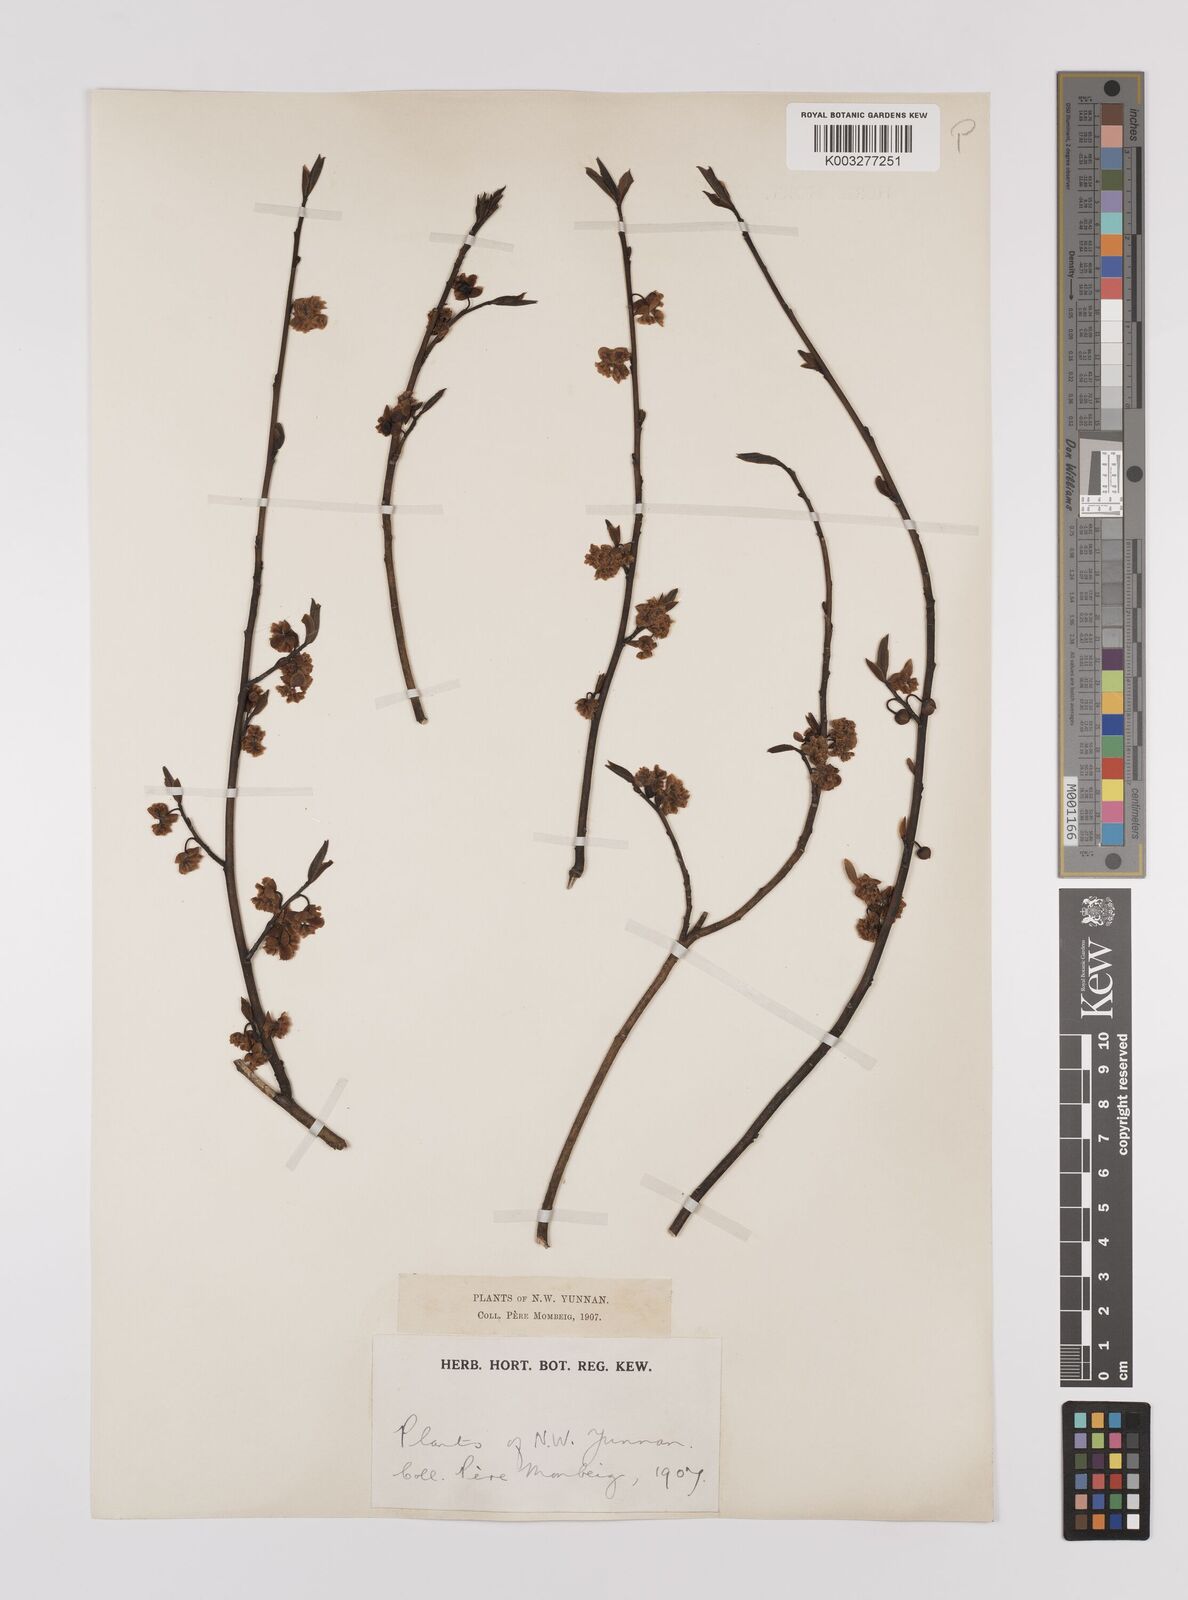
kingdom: Plantae
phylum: Tracheophyta
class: Magnoliopsida
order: Laurales
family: Lauraceae
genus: Litsea
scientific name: Litsea cubeba
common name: Mountain-pepper
